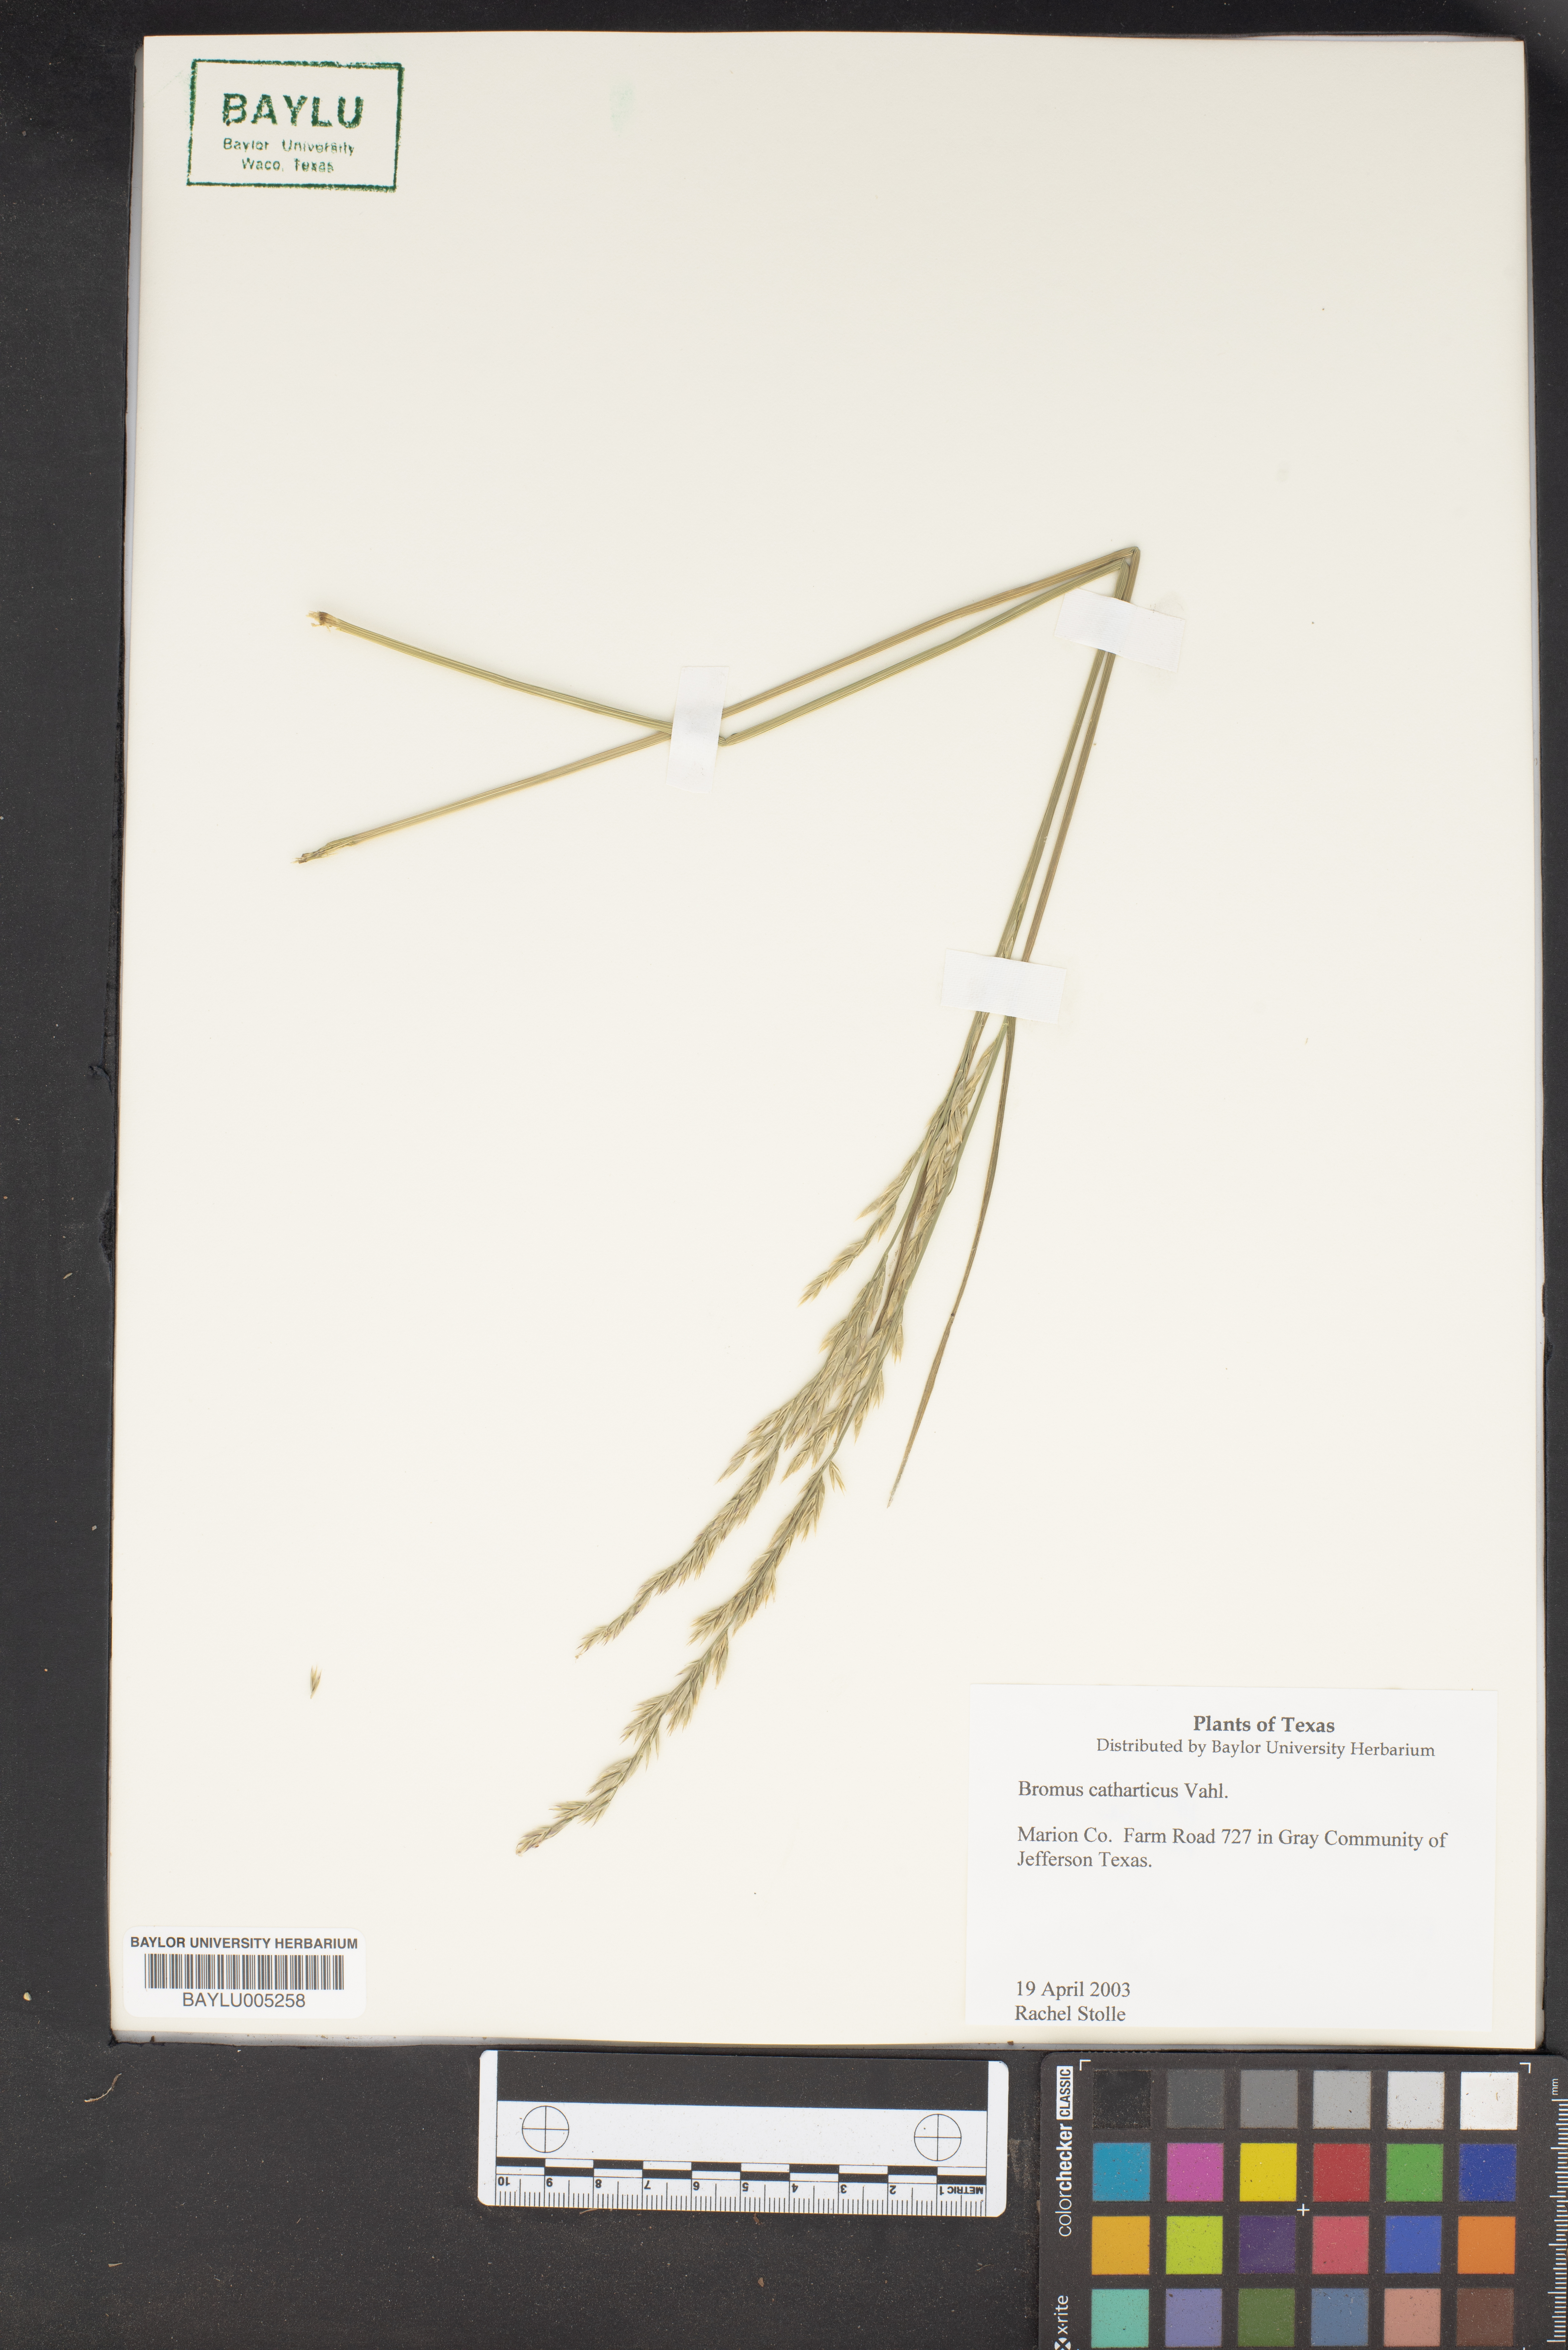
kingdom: Plantae
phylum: Tracheophyta
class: Liliopsida
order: Poales
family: Poaceae
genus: Bromus
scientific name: Bromus catharticus
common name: Rescuegrass
